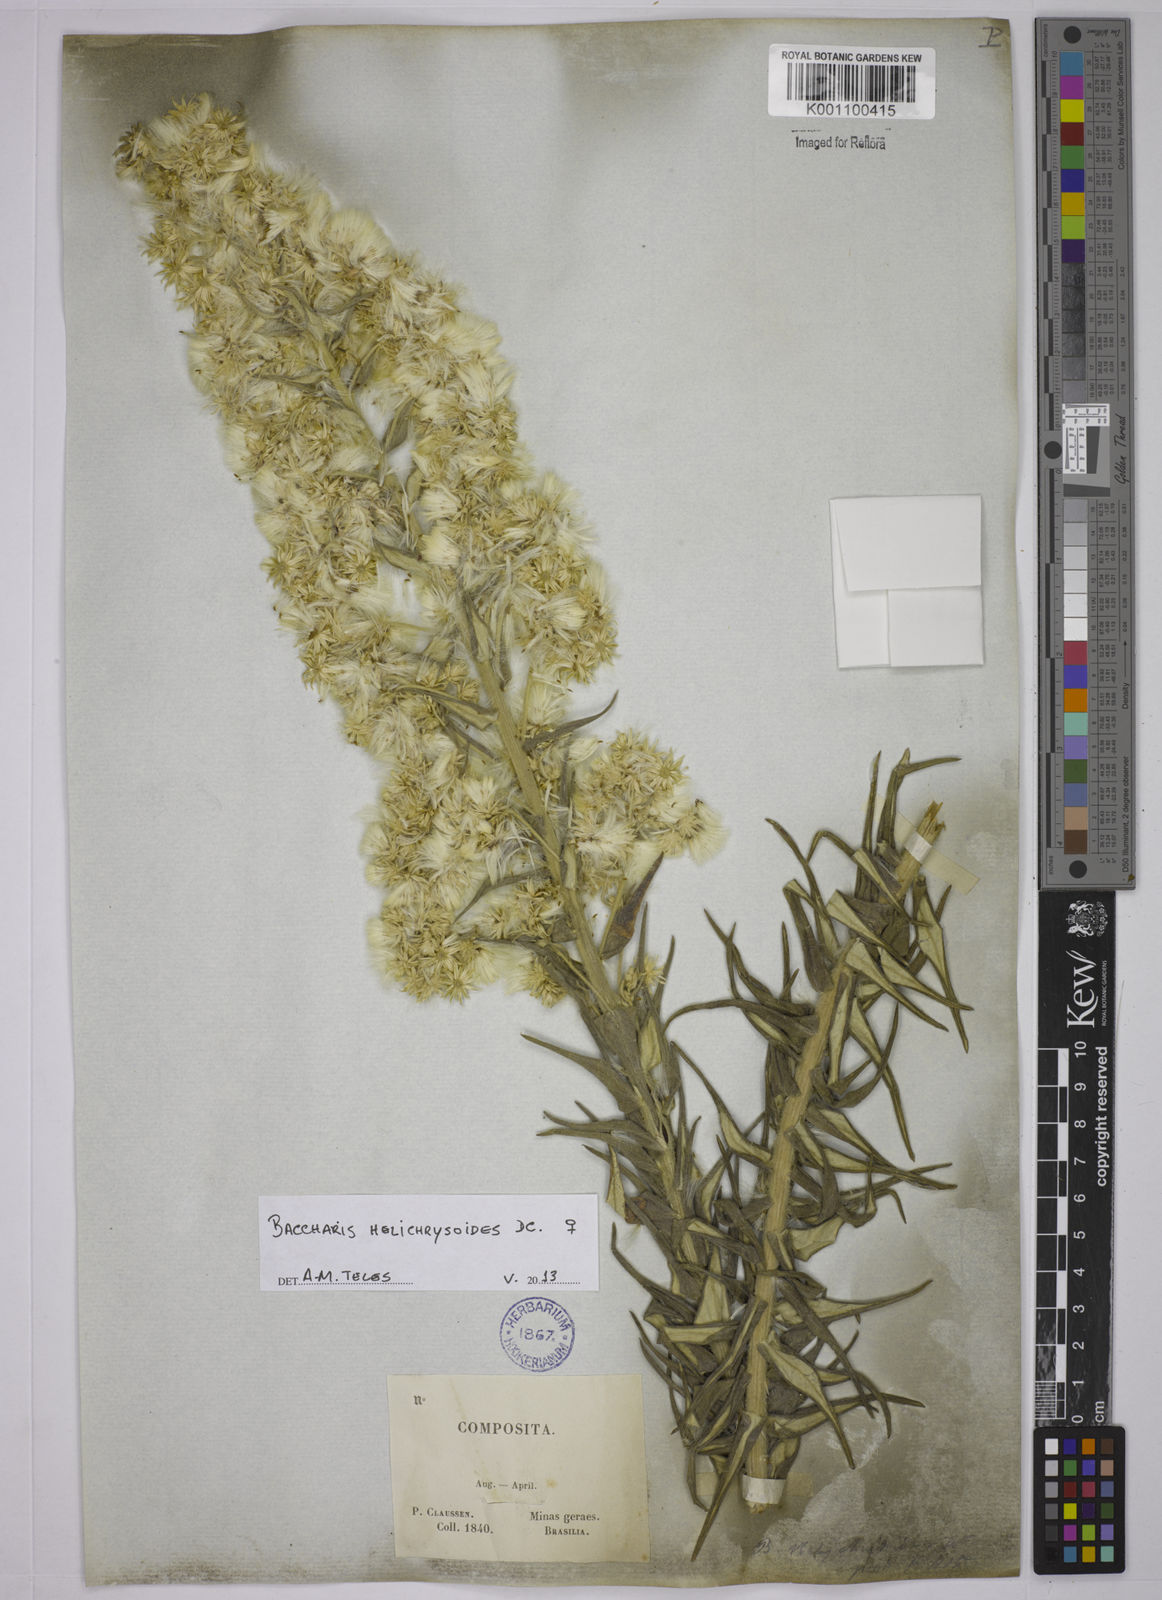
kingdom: Plantae
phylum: Tracheophyta
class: Magnoliopsida
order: Asterales
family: Asteraceae
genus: Baccharis
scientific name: Baccharis helichrysoides
